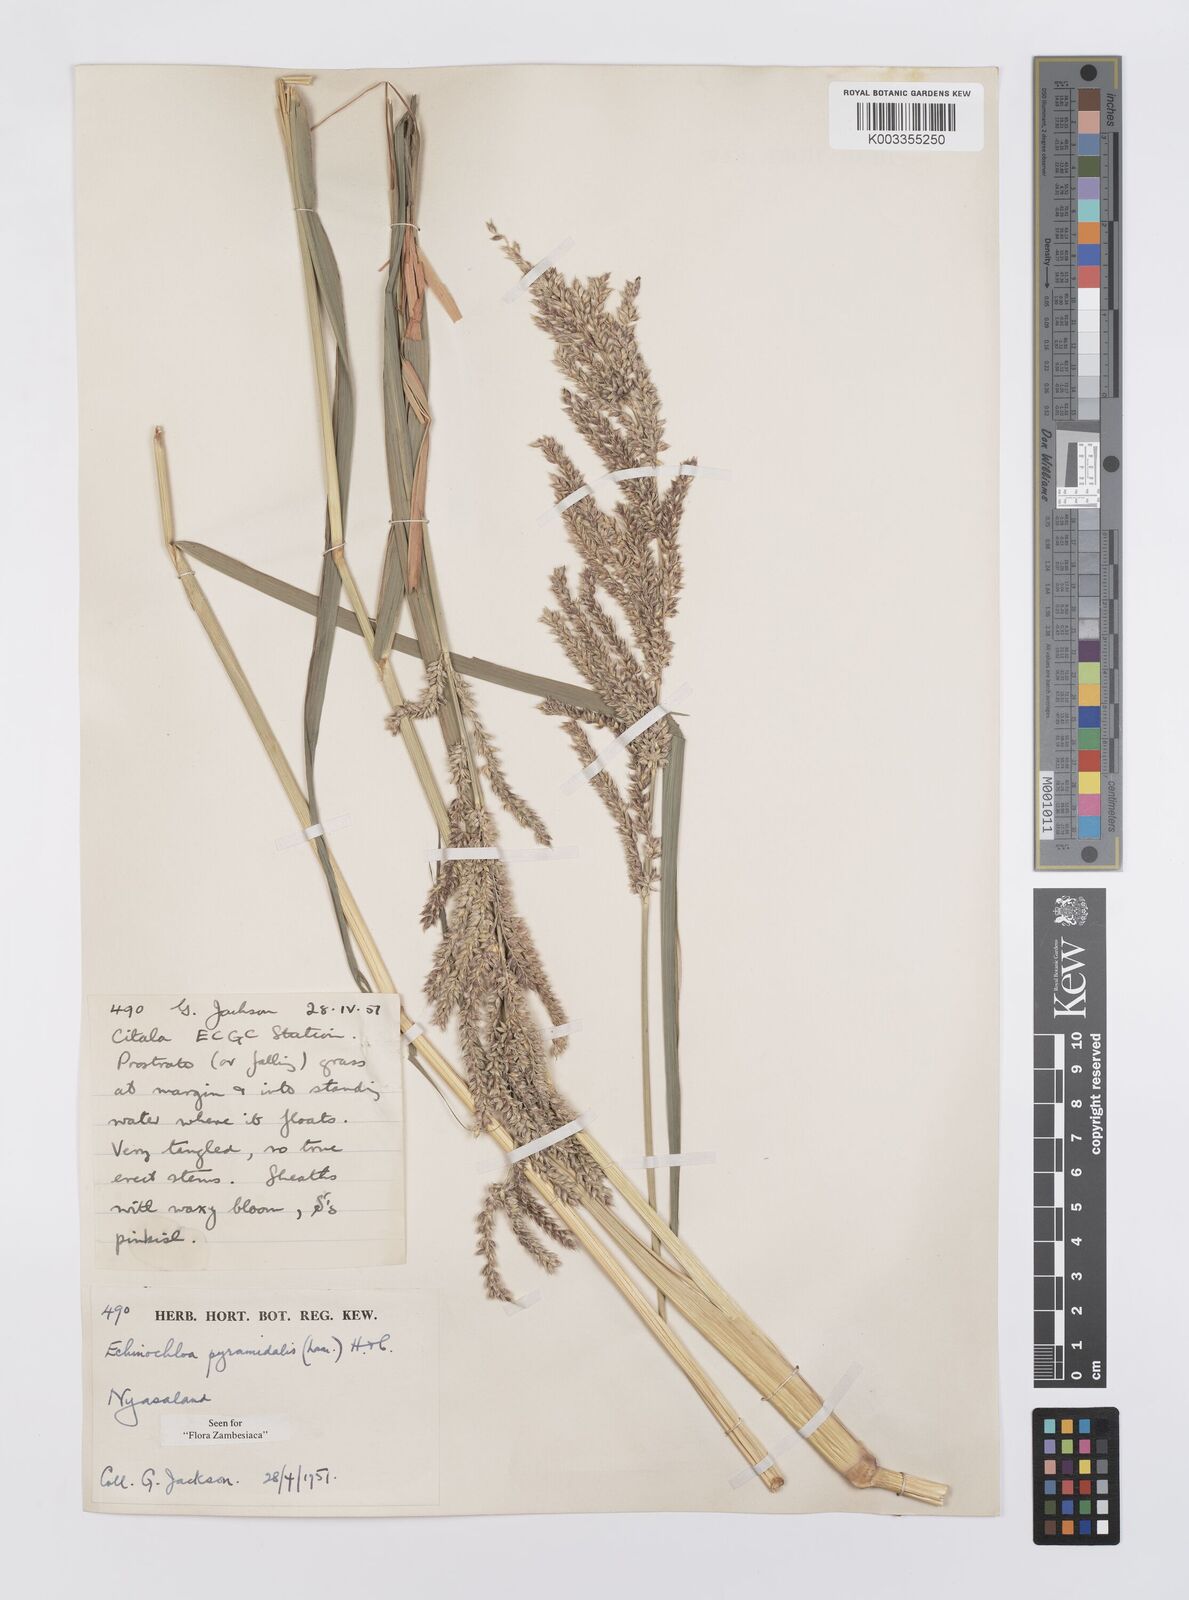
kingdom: Plantae
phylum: Tracheophyta
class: Liliopsida
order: Poales
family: Poaceae
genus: Echinochloa
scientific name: Echinochloa pyramidalis
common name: Antelope grass
